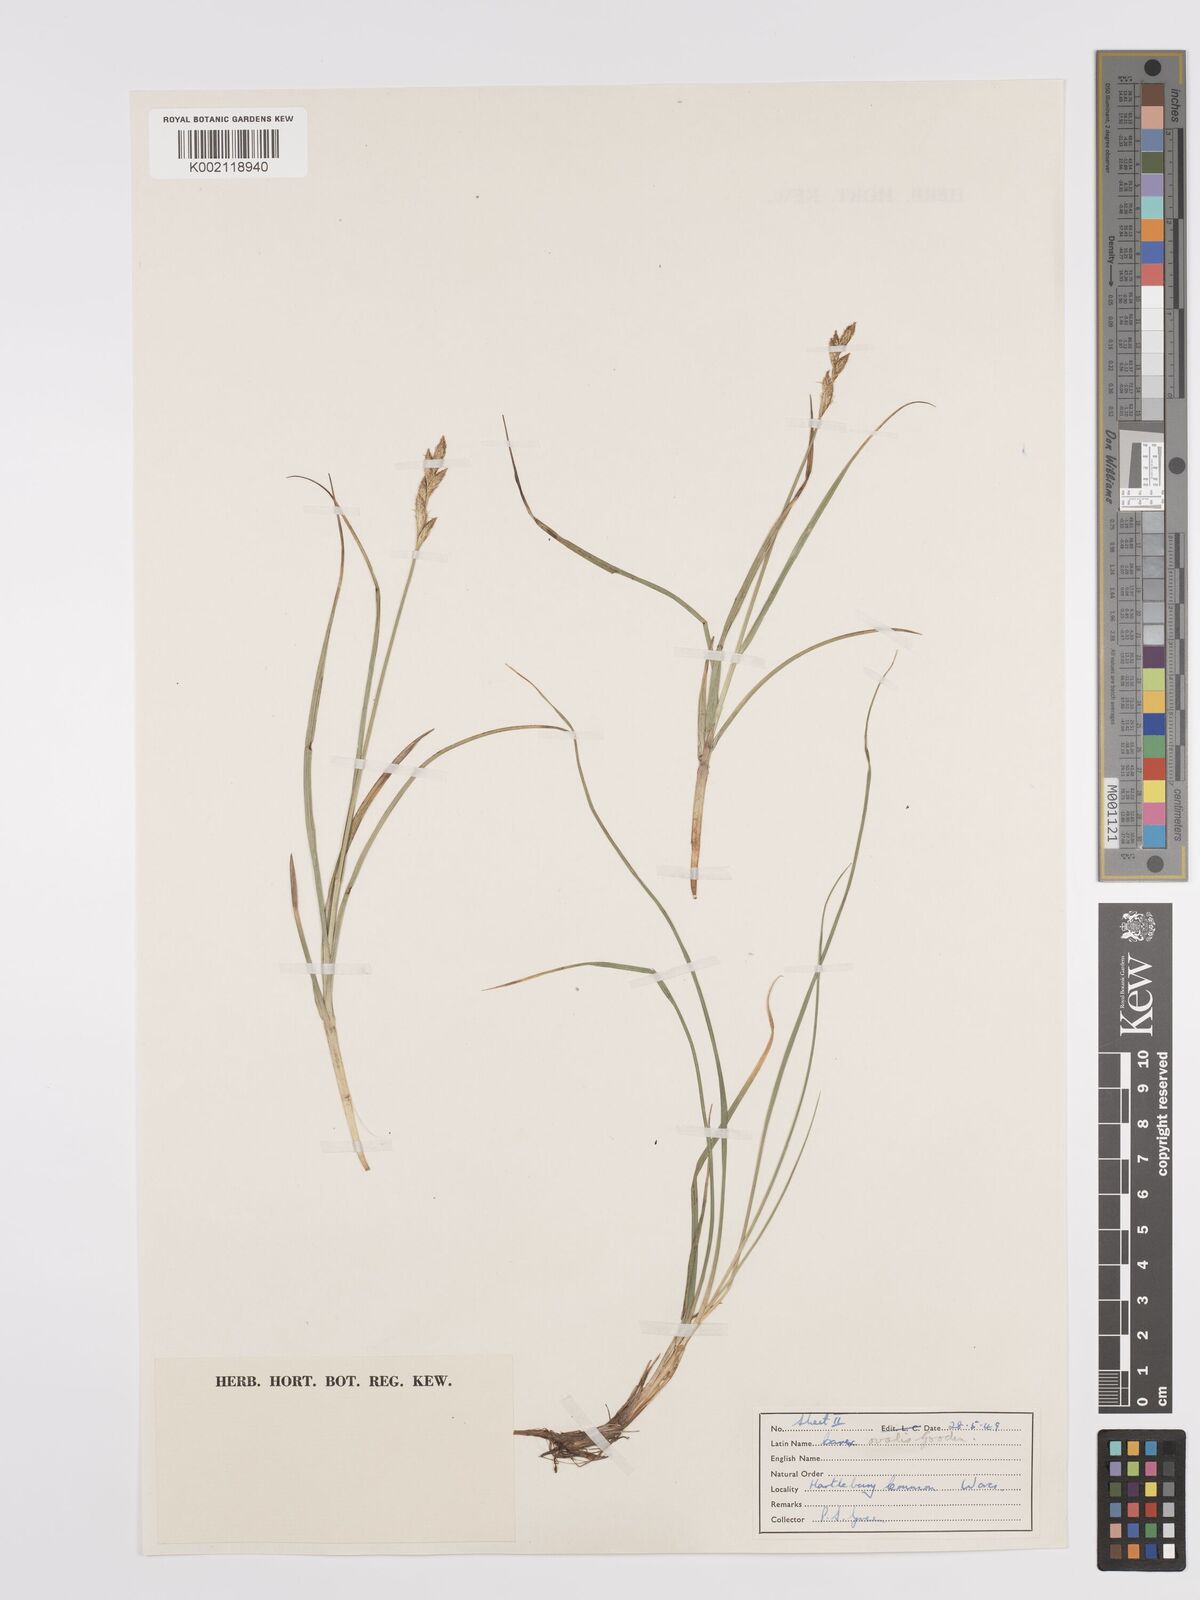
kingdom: Plantae
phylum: Tracheophyta
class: Liliopsida
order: Poales
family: Cyperaceae
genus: Carex
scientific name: Carex leporina
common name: Oval sedge
